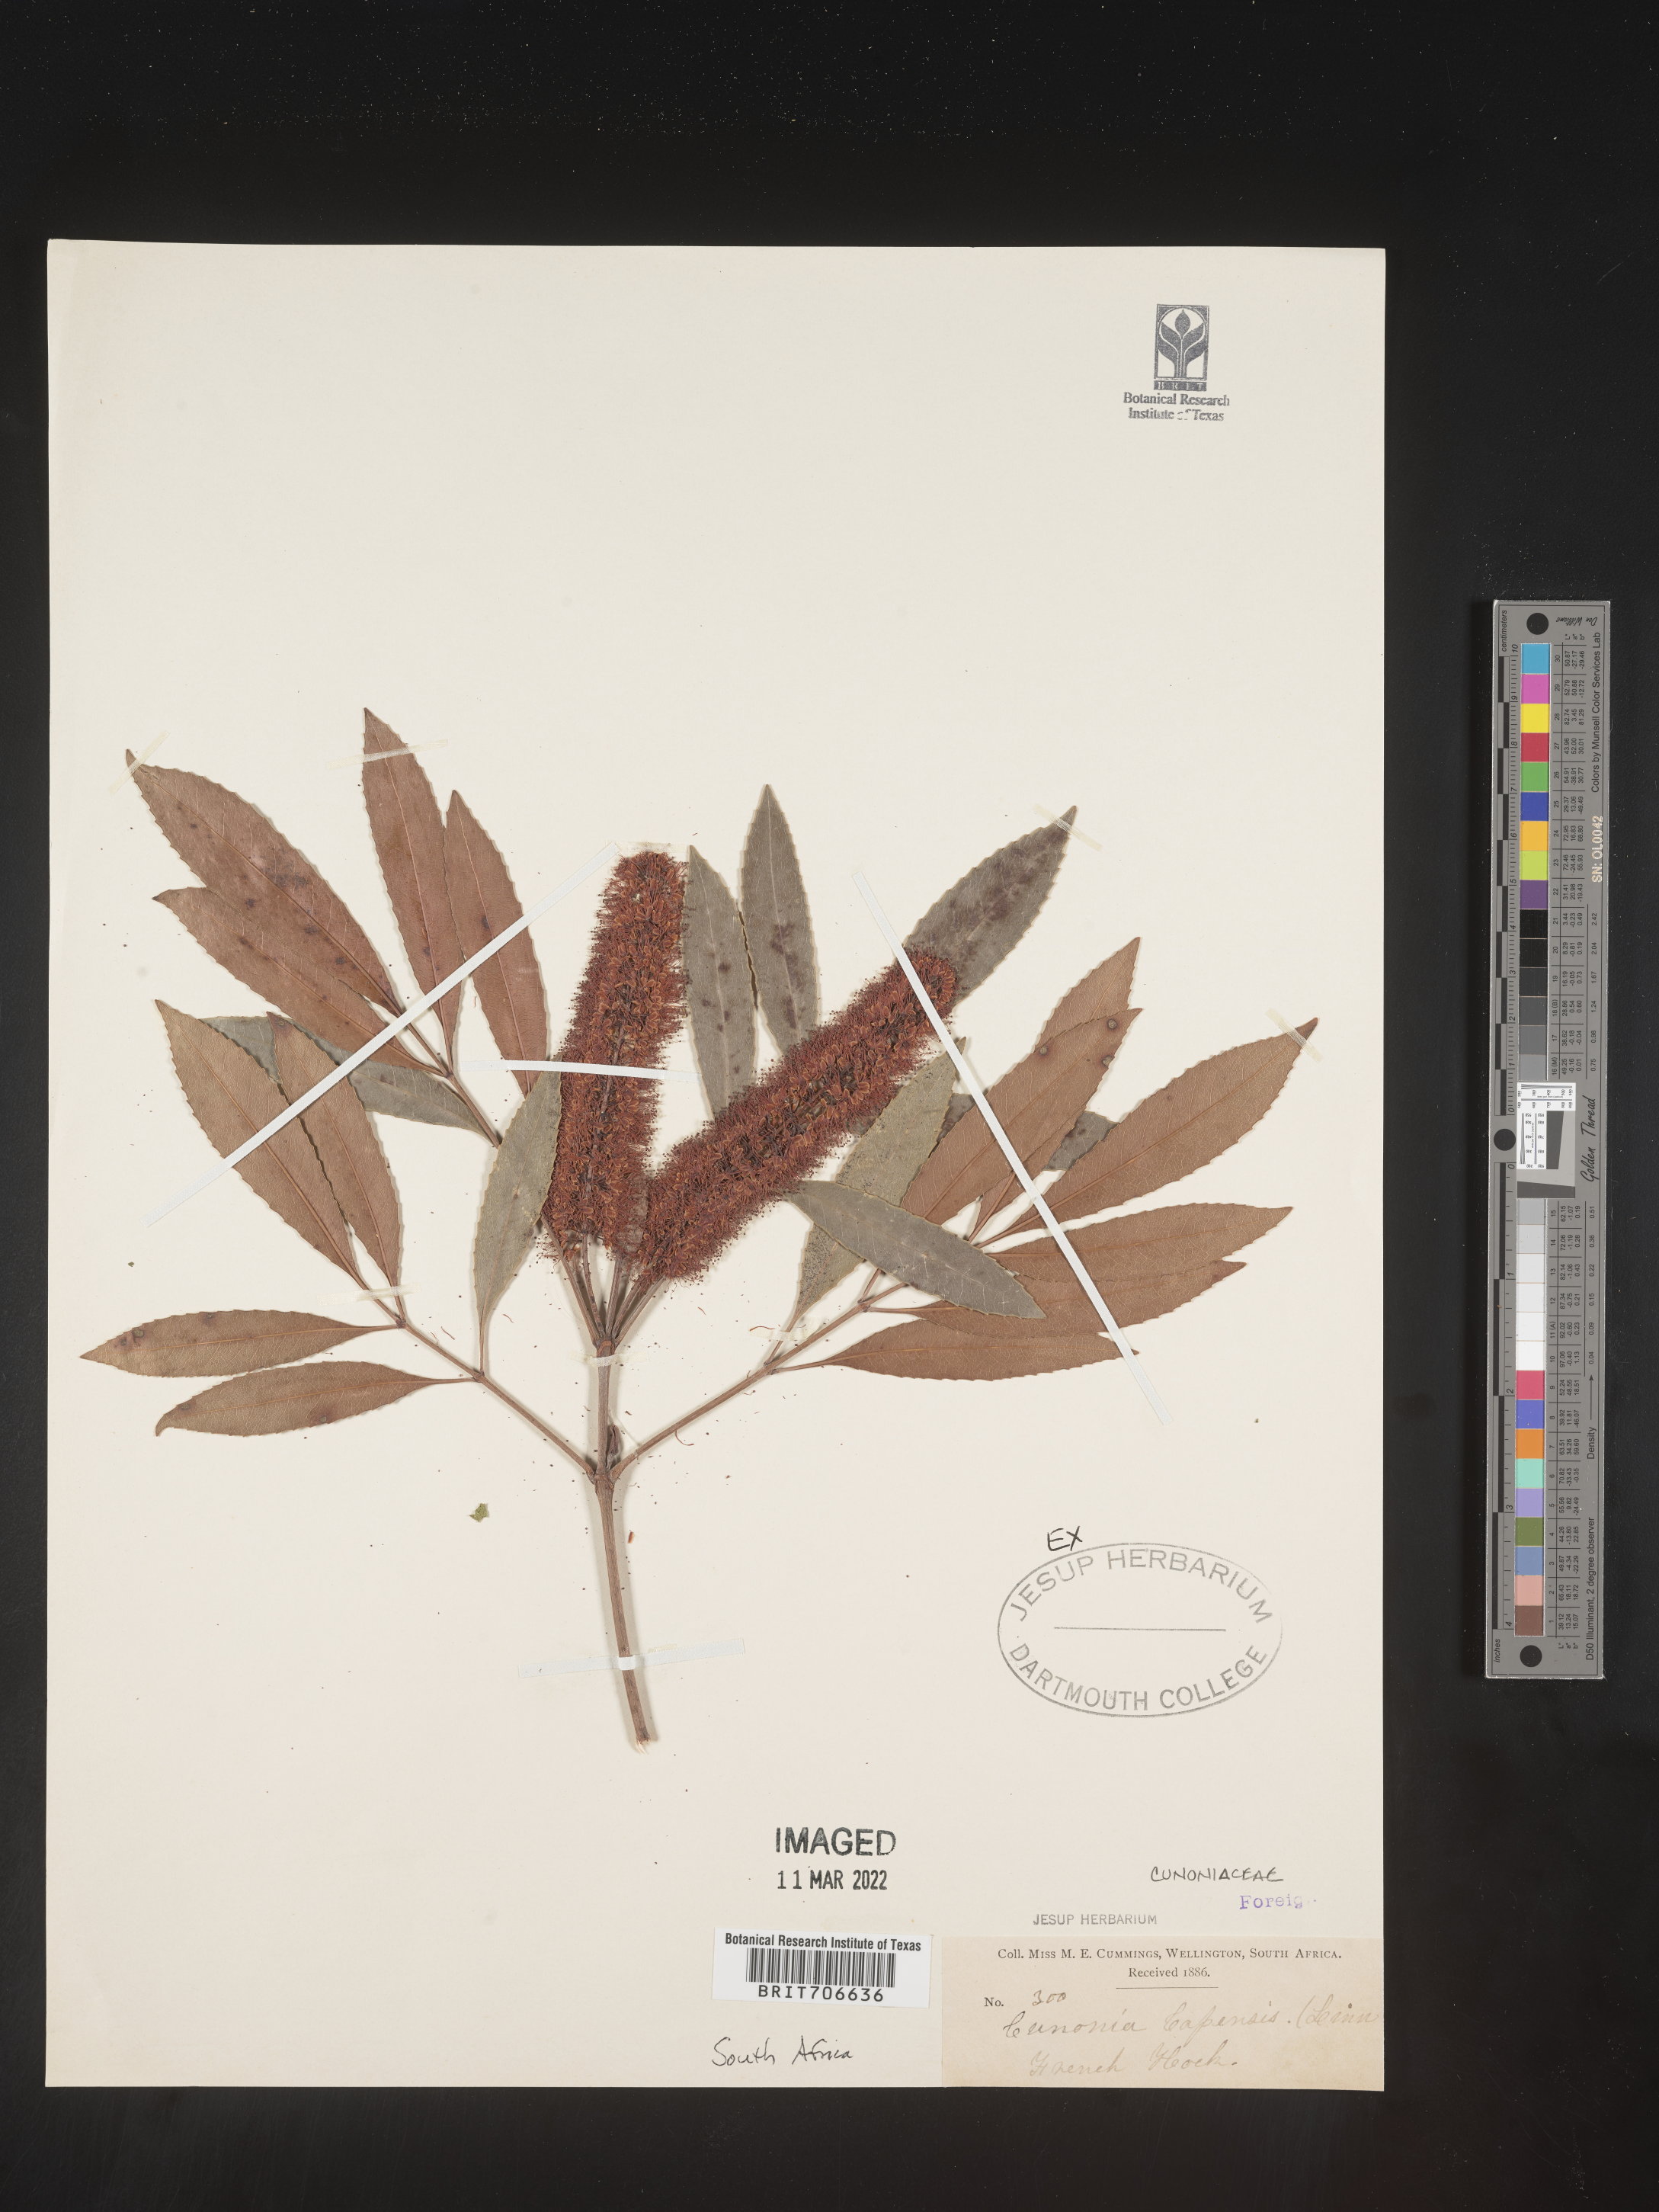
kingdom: Plantae
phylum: Tracheophyta
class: Magnoliopsida
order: Oxalidales
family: Cunoniaceae
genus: Cunonia
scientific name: Cunonia
